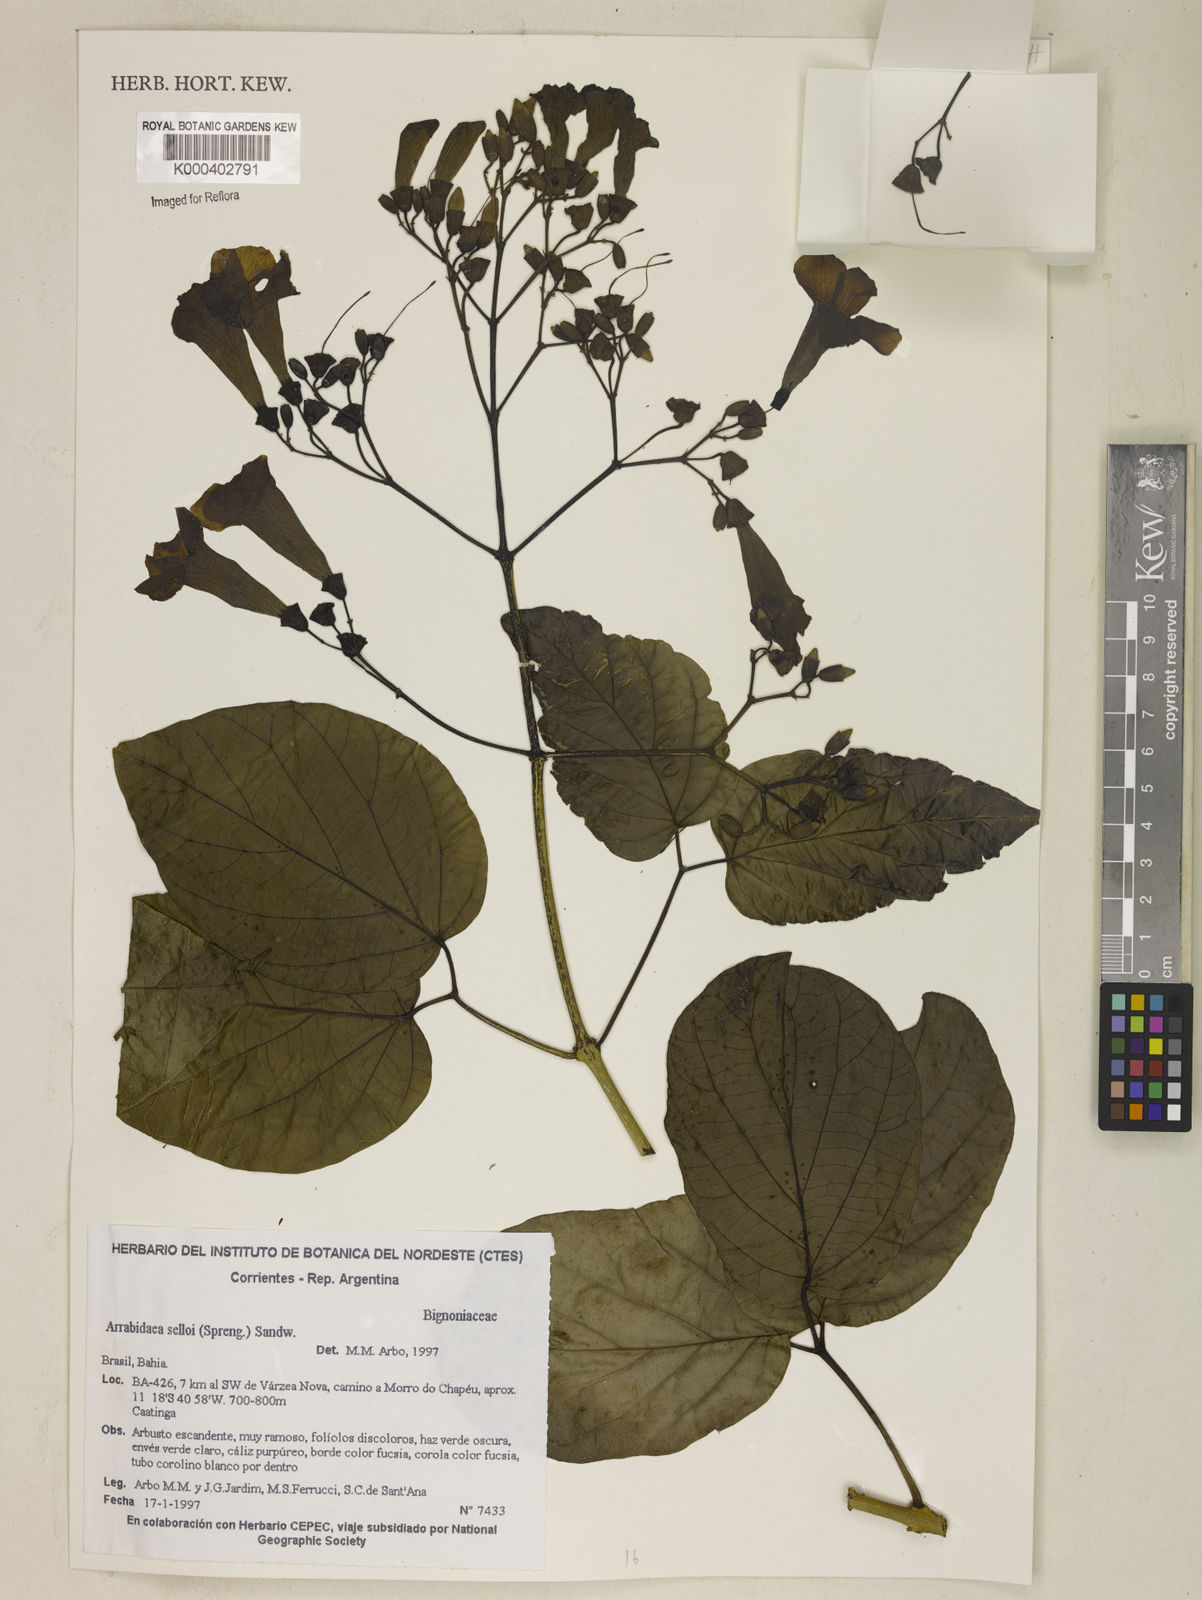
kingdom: Plantae
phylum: Tracheophyta
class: Magnoliopsida
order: Lamiales
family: Bignoniaceae
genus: Tanaecium
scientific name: Tanaecium selloi
